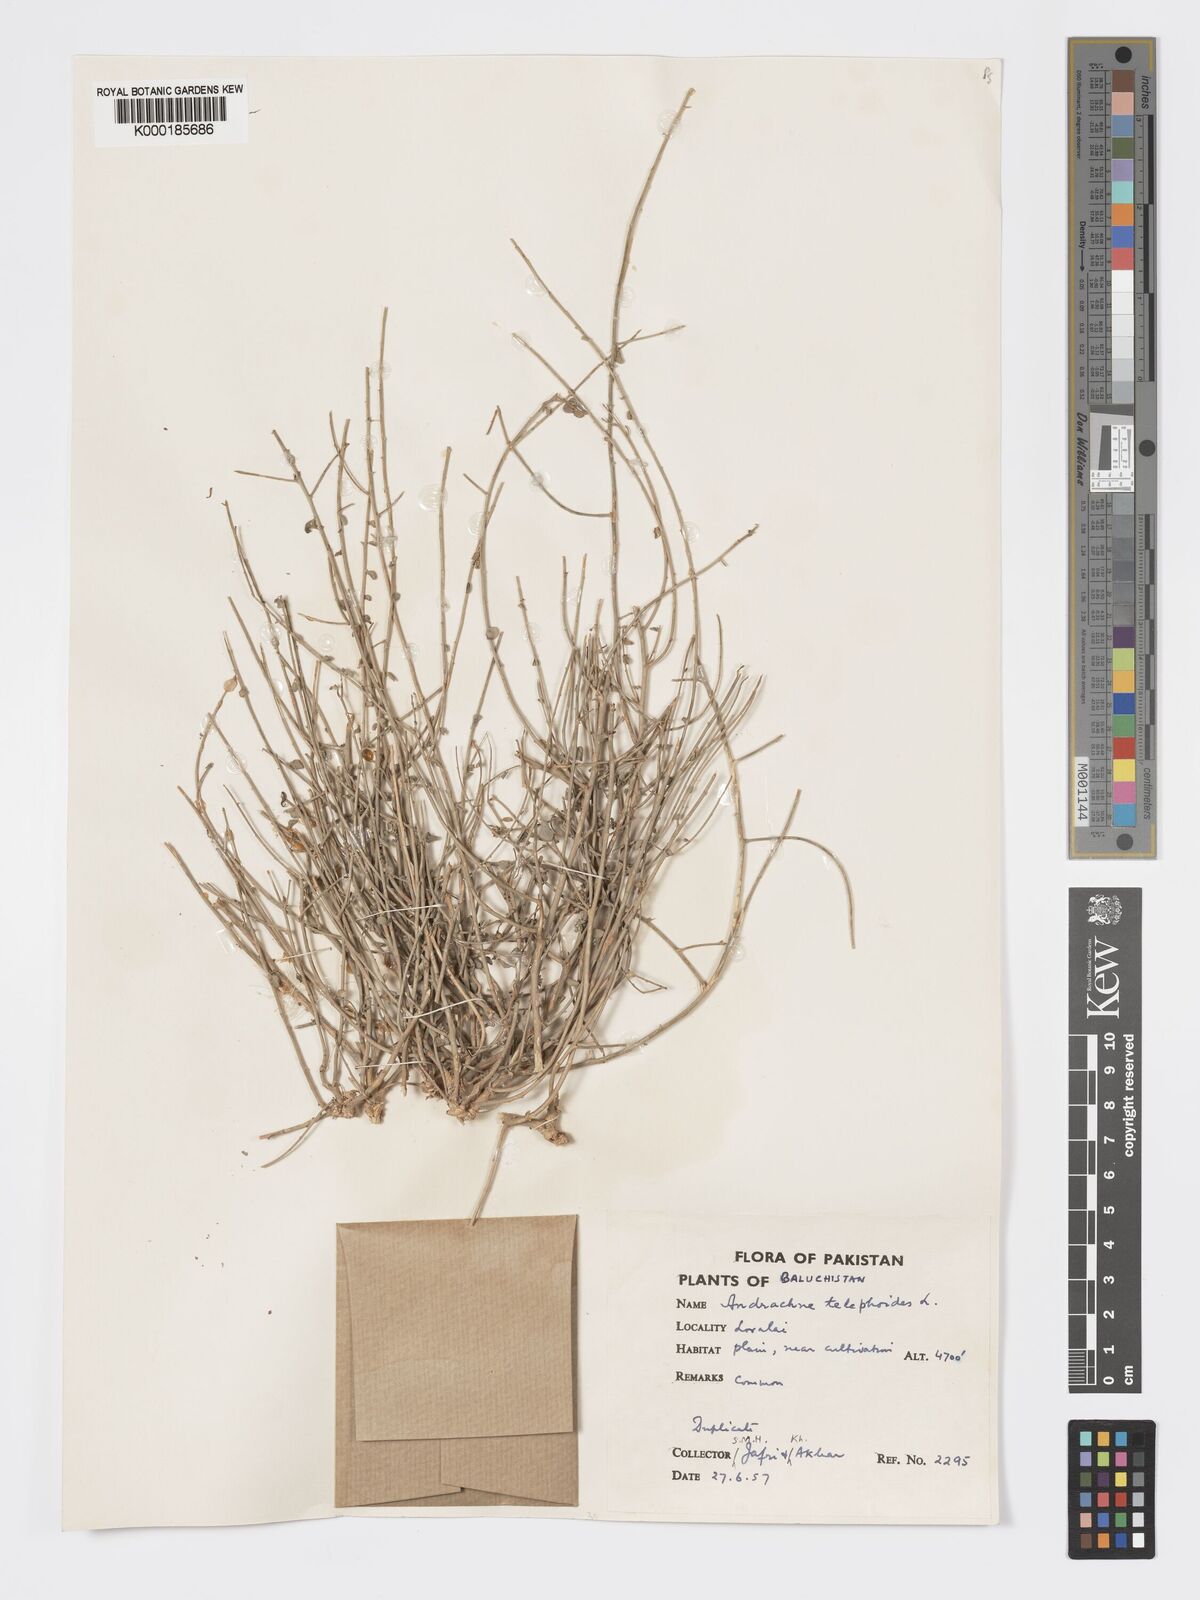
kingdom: Plantae
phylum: Tracheophyta
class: Magnoliopsida
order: Malpighiales
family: Phyllanthaceae
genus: Andrachne
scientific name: Andrachne telephioides
